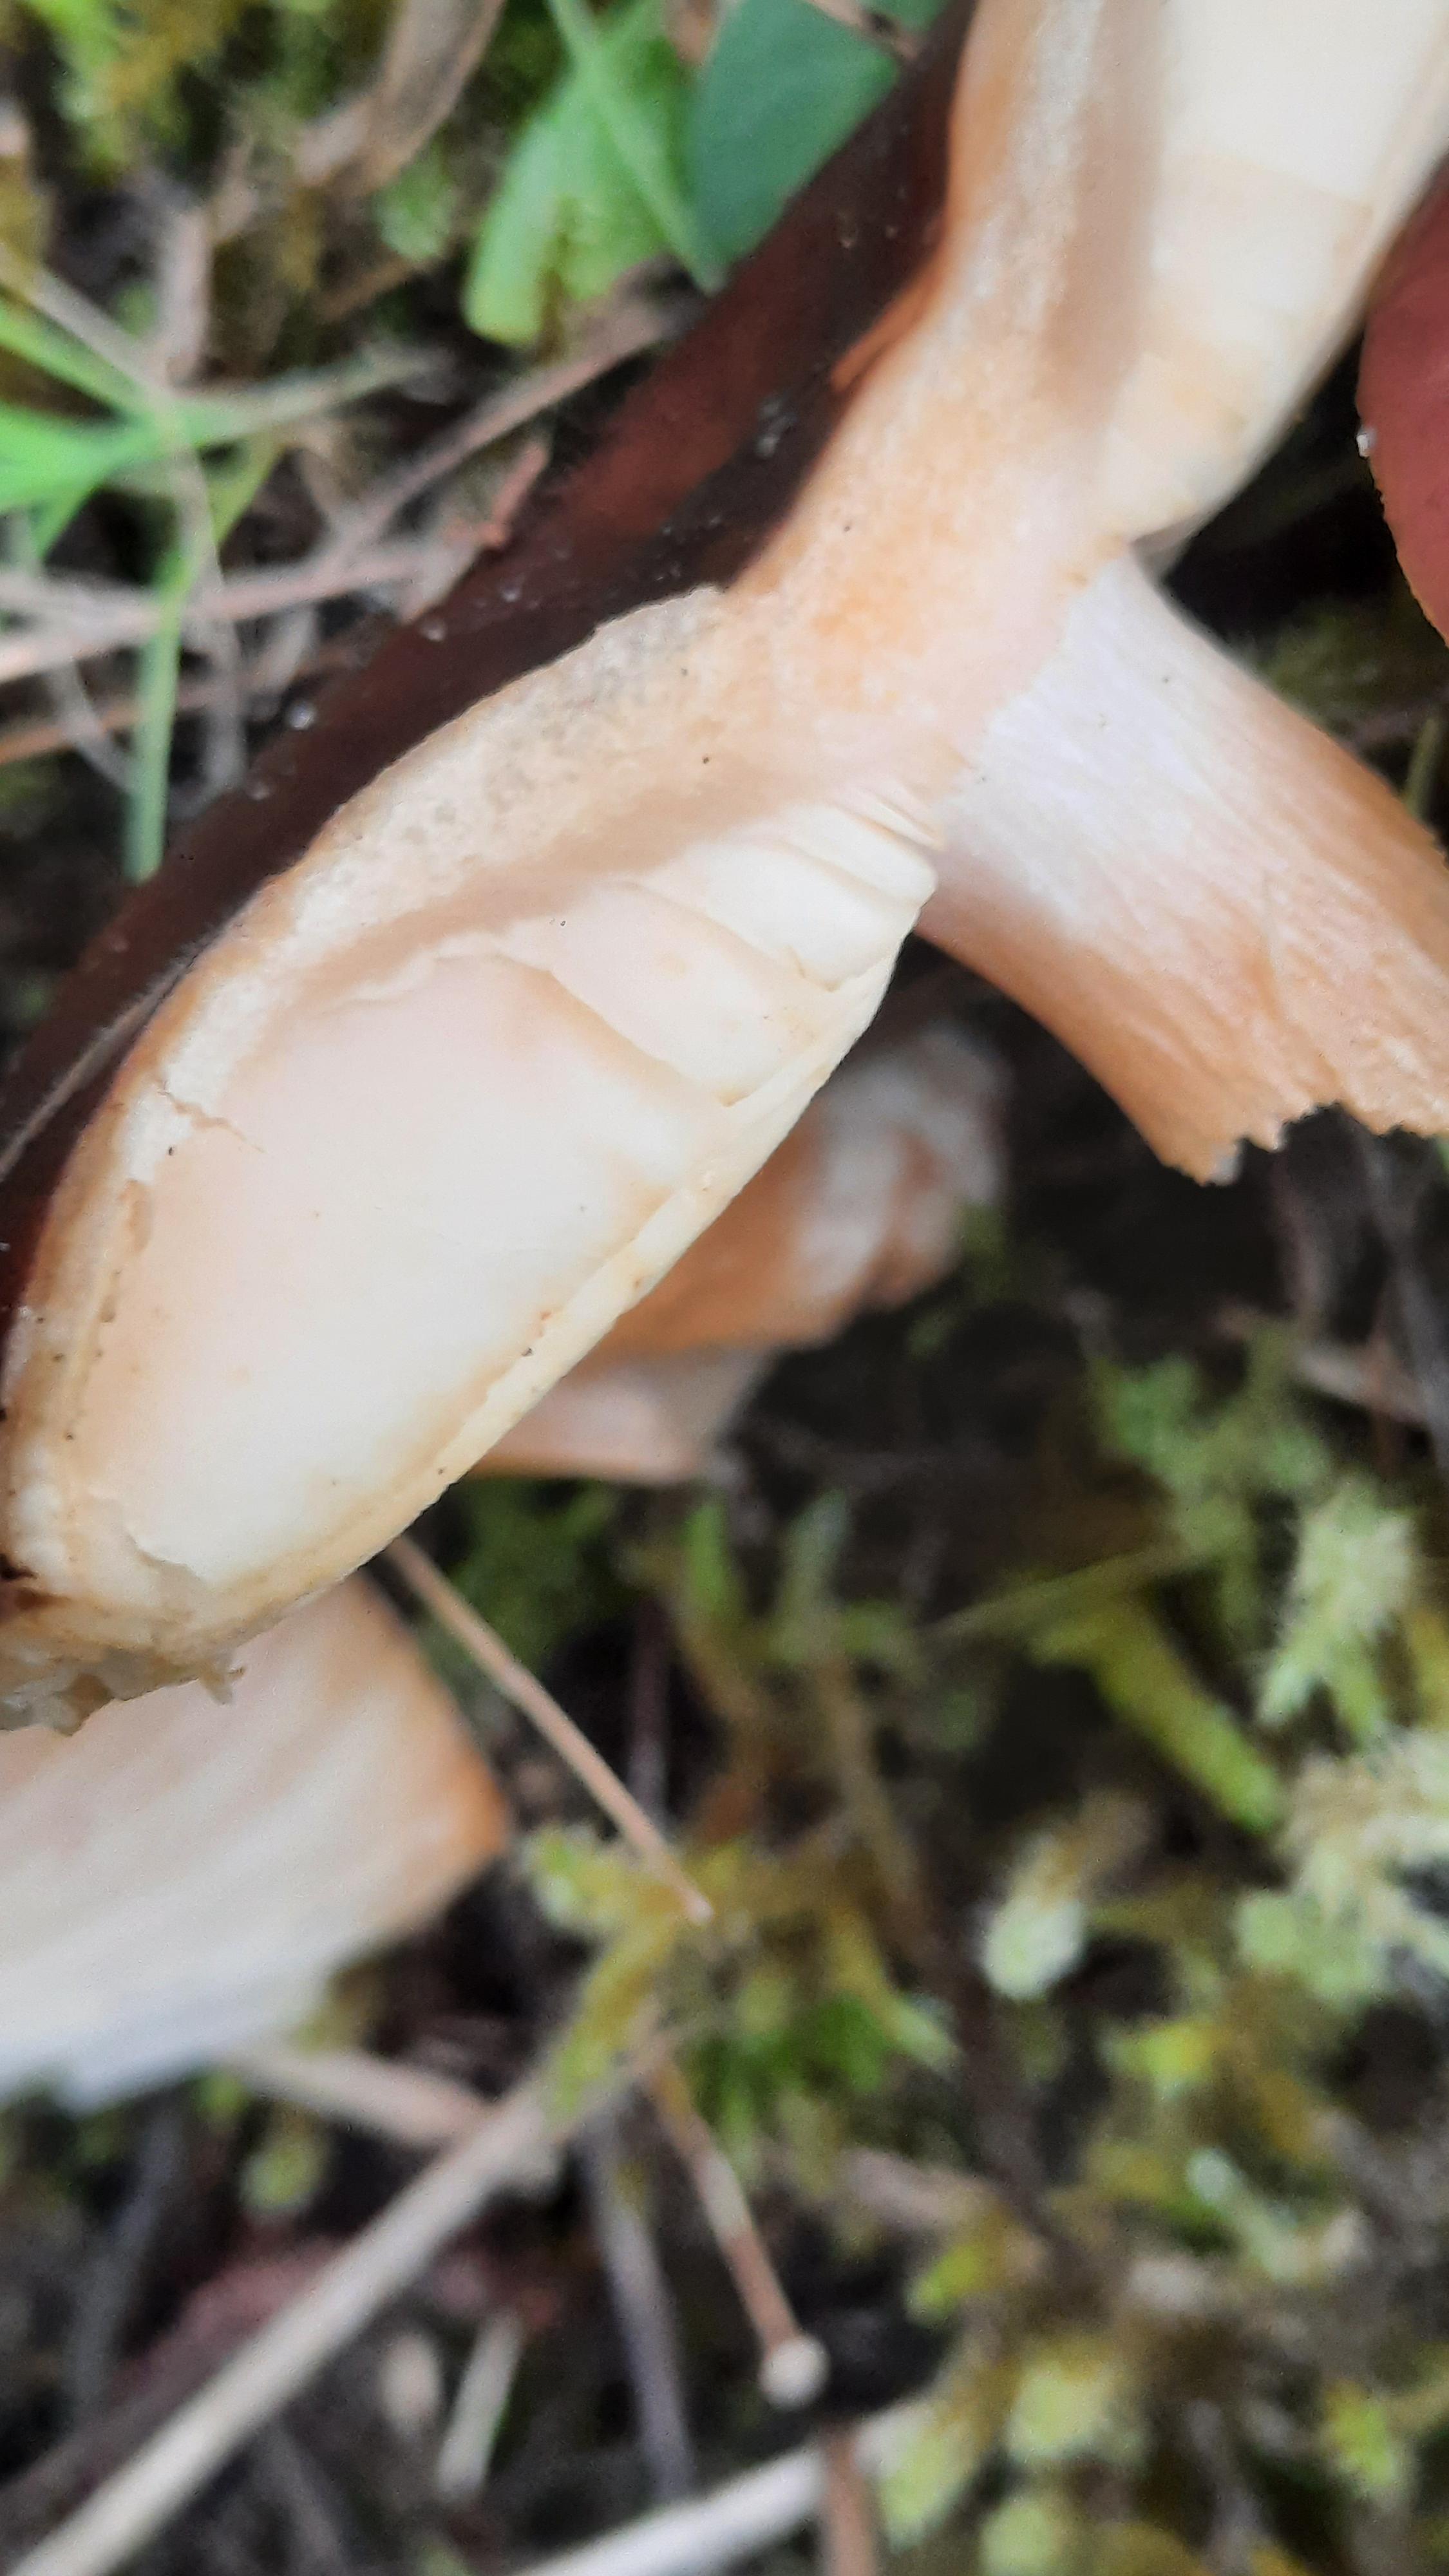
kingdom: Fungi
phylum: Basidiomycota
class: Agaricomycetes
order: Russulales
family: Russulaceae
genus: Russula
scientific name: Russula
